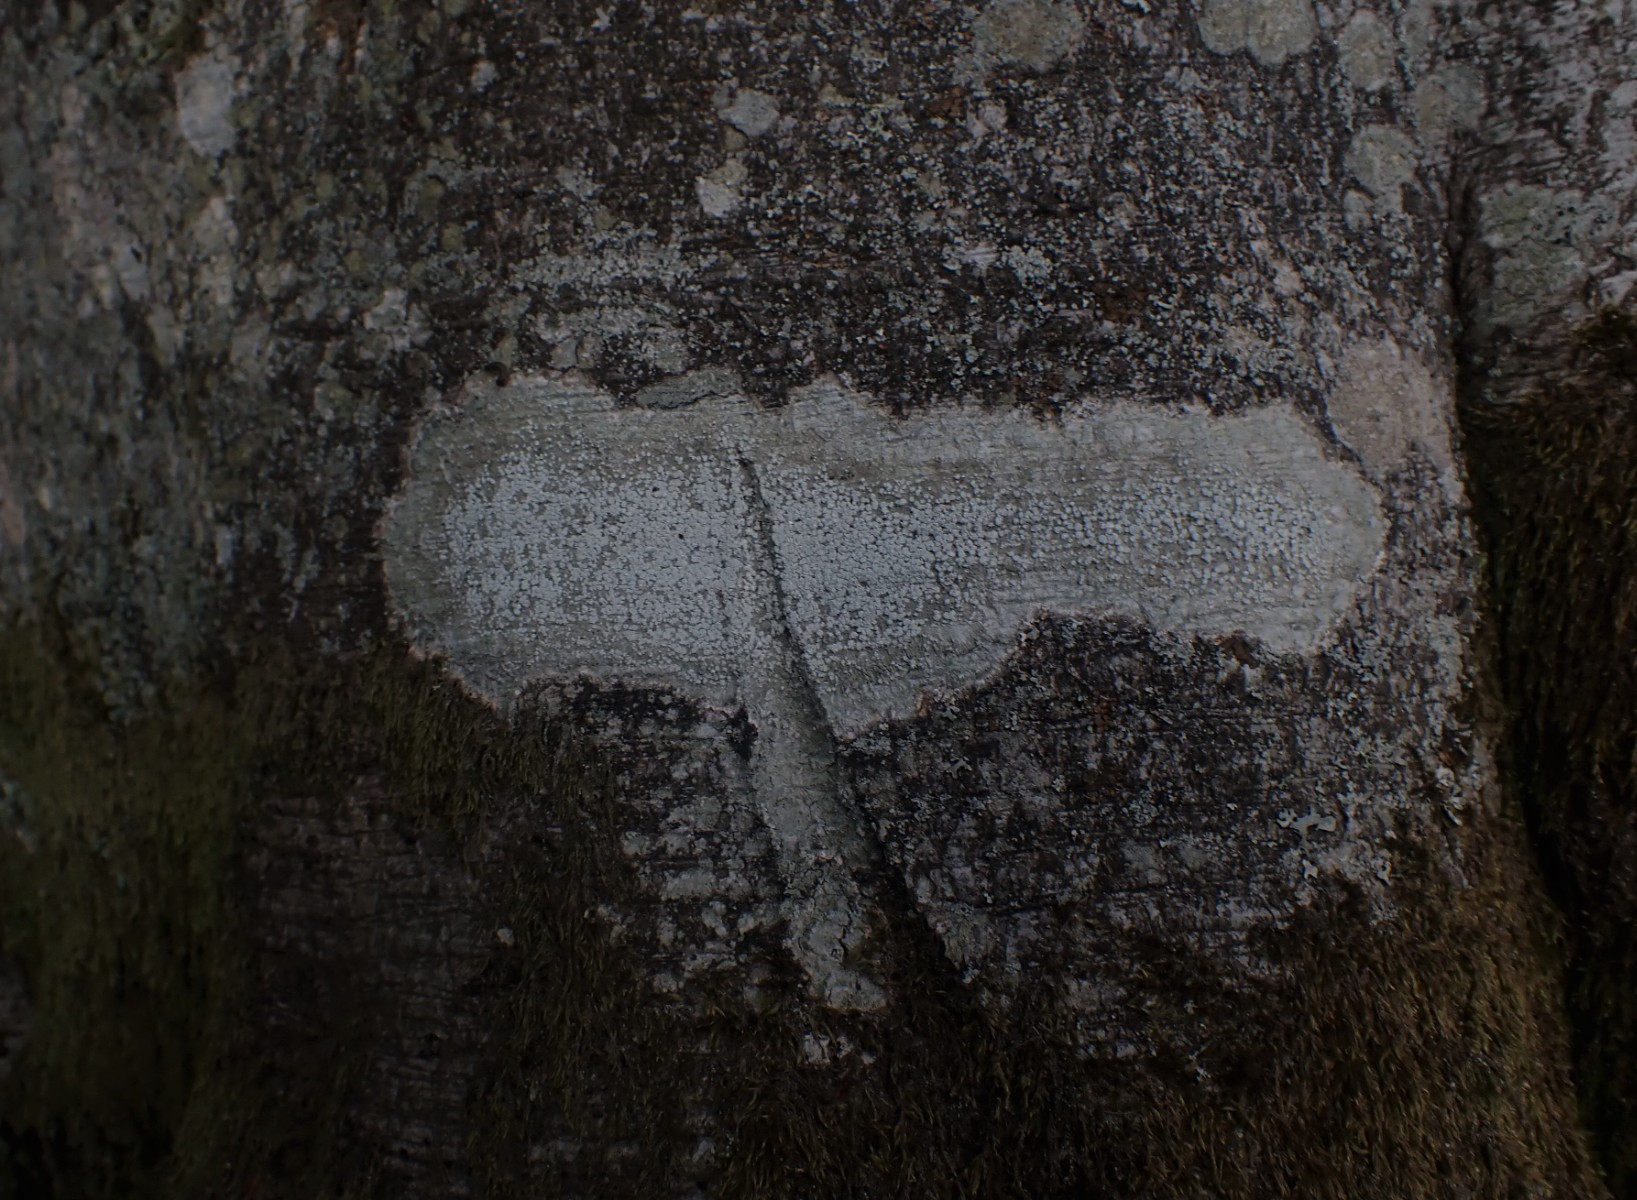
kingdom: Fungi
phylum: Ascomycota
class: Lecanoromycetes
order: Pertusariales
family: Pertusariaceae
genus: Lepra
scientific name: Lepra amara
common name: bitter prikvortelav
